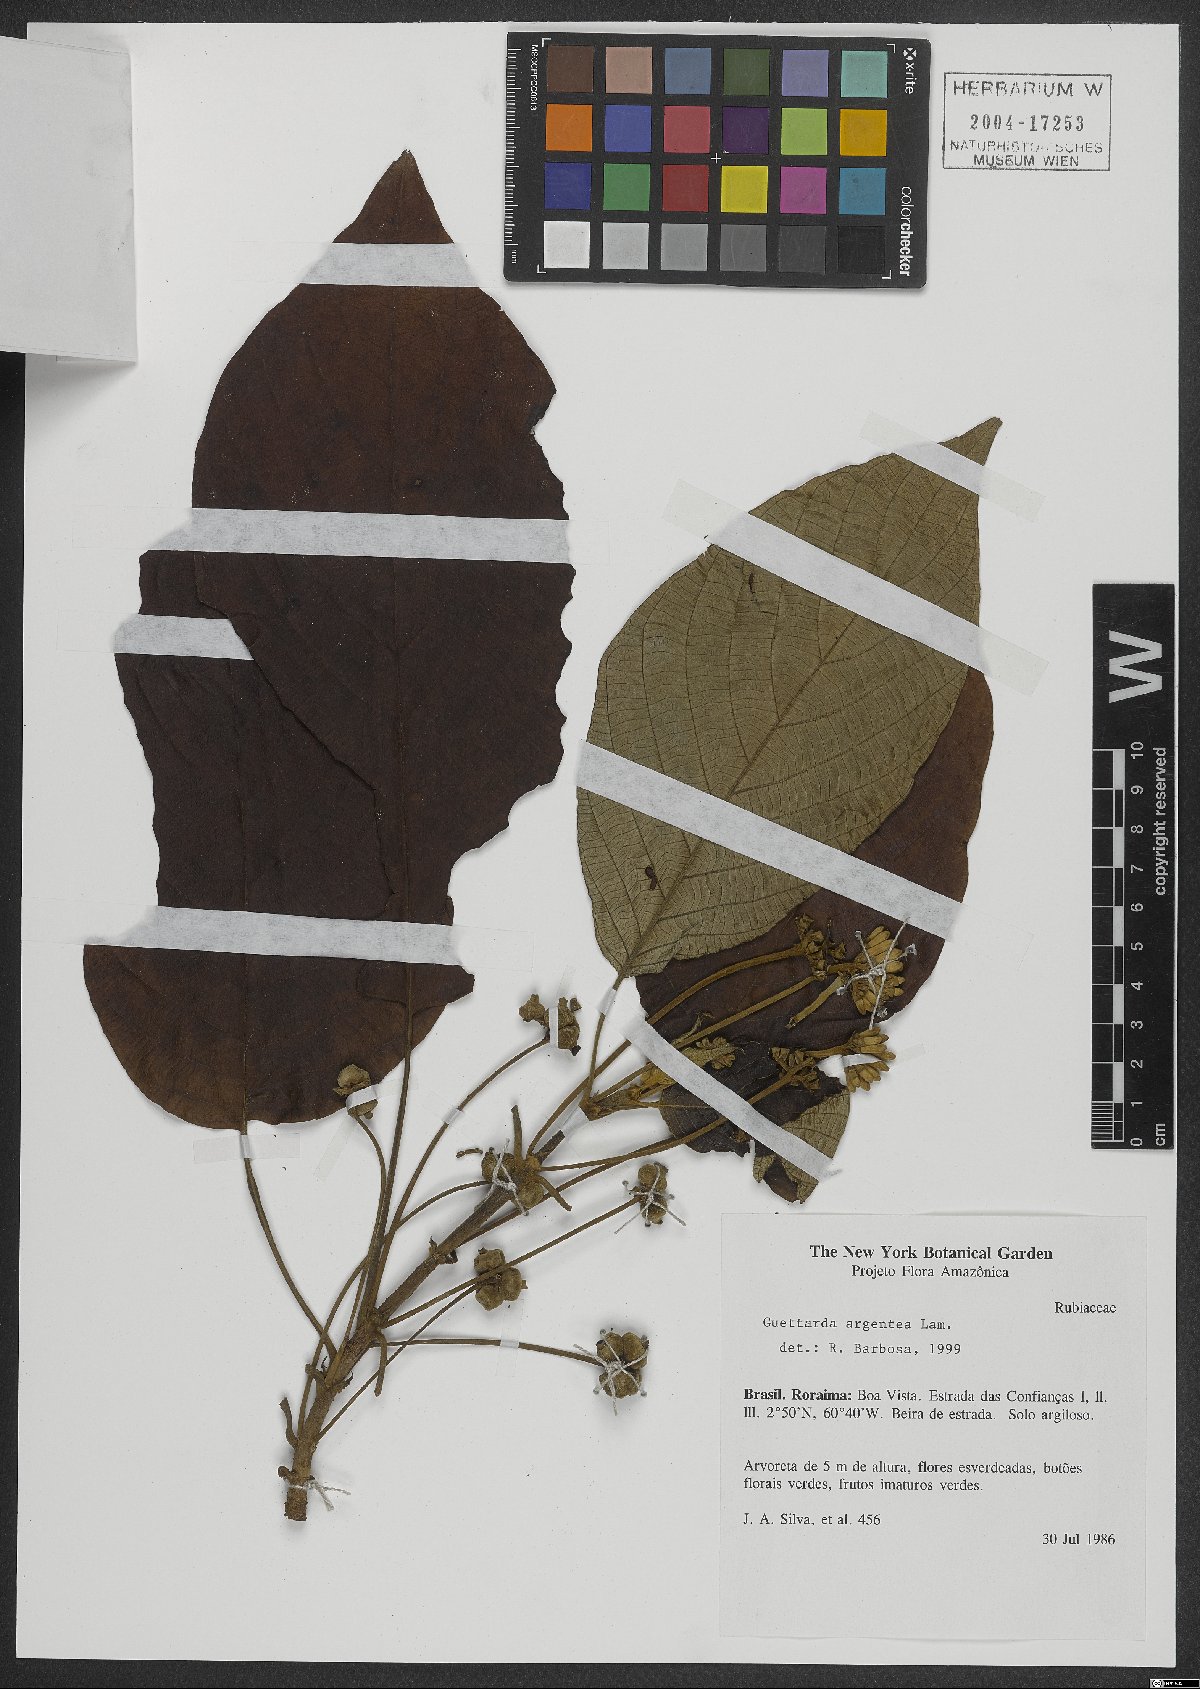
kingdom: Plantae
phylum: Tracheophyta
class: Magnoliopsida
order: Gentianales
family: Rubiaceae
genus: Guettarda
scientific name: Guettarda argentea
